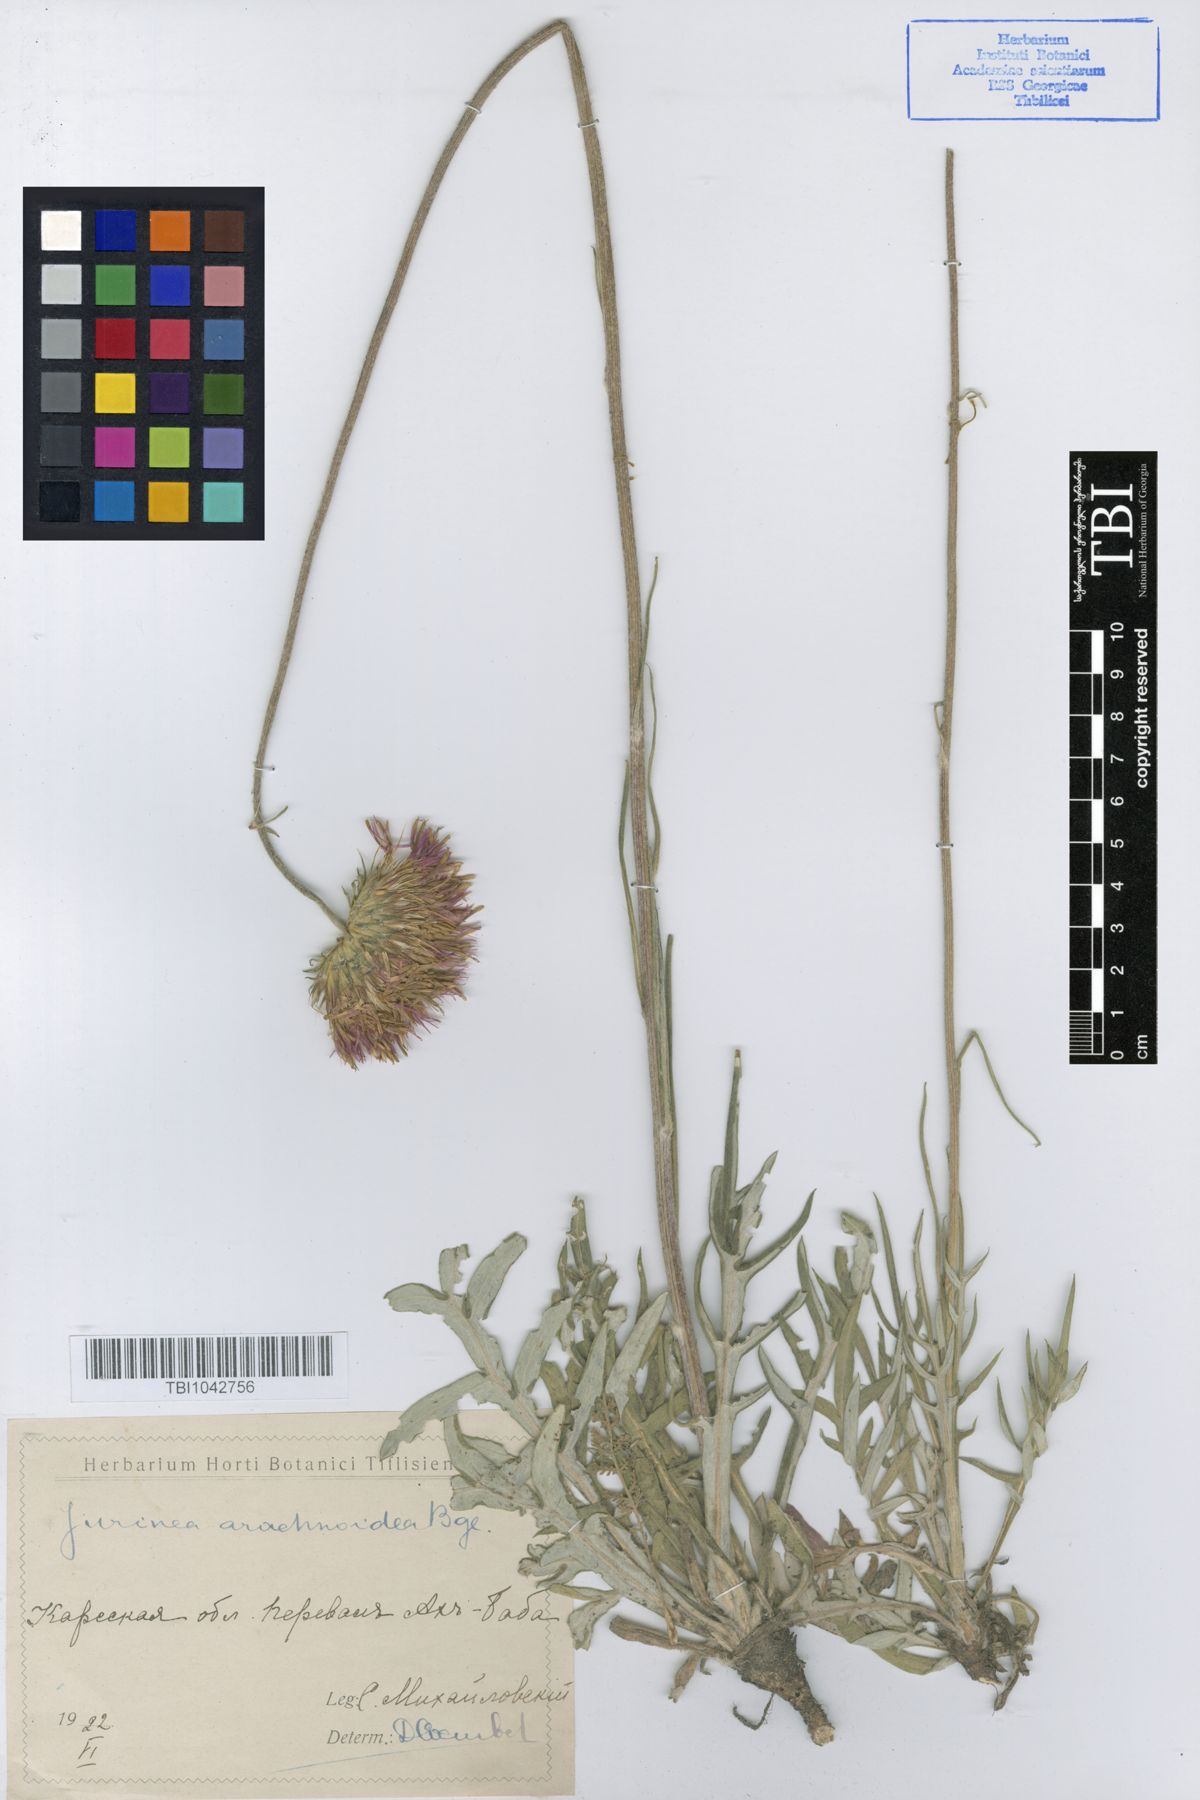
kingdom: Plantae
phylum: Tracheophyta
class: Magnoliopsida
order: Asterales
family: Asteraceae
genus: Jurinea
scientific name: Jurinea blanda
